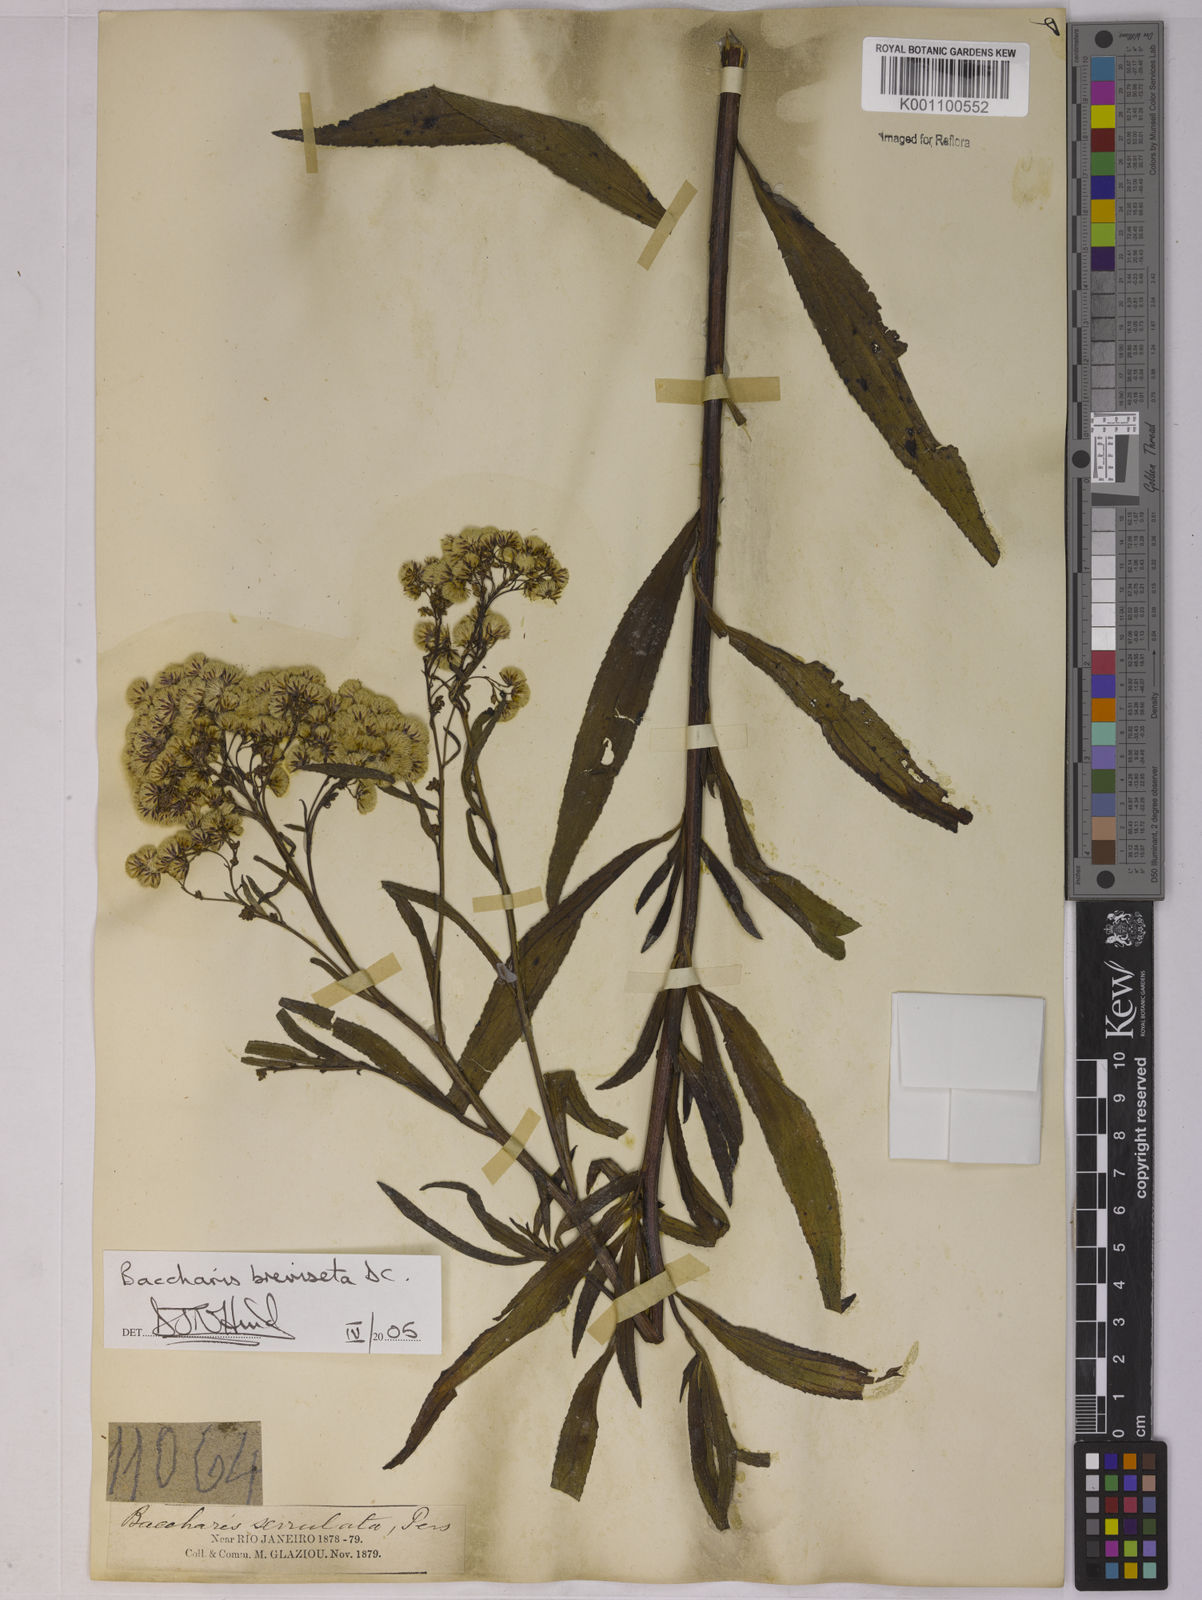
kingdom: Plantae
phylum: Tracheophyta
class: Magnoliopsida
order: Asterales
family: Asteraceae
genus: Baccharis
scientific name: Baccharis breviseta
